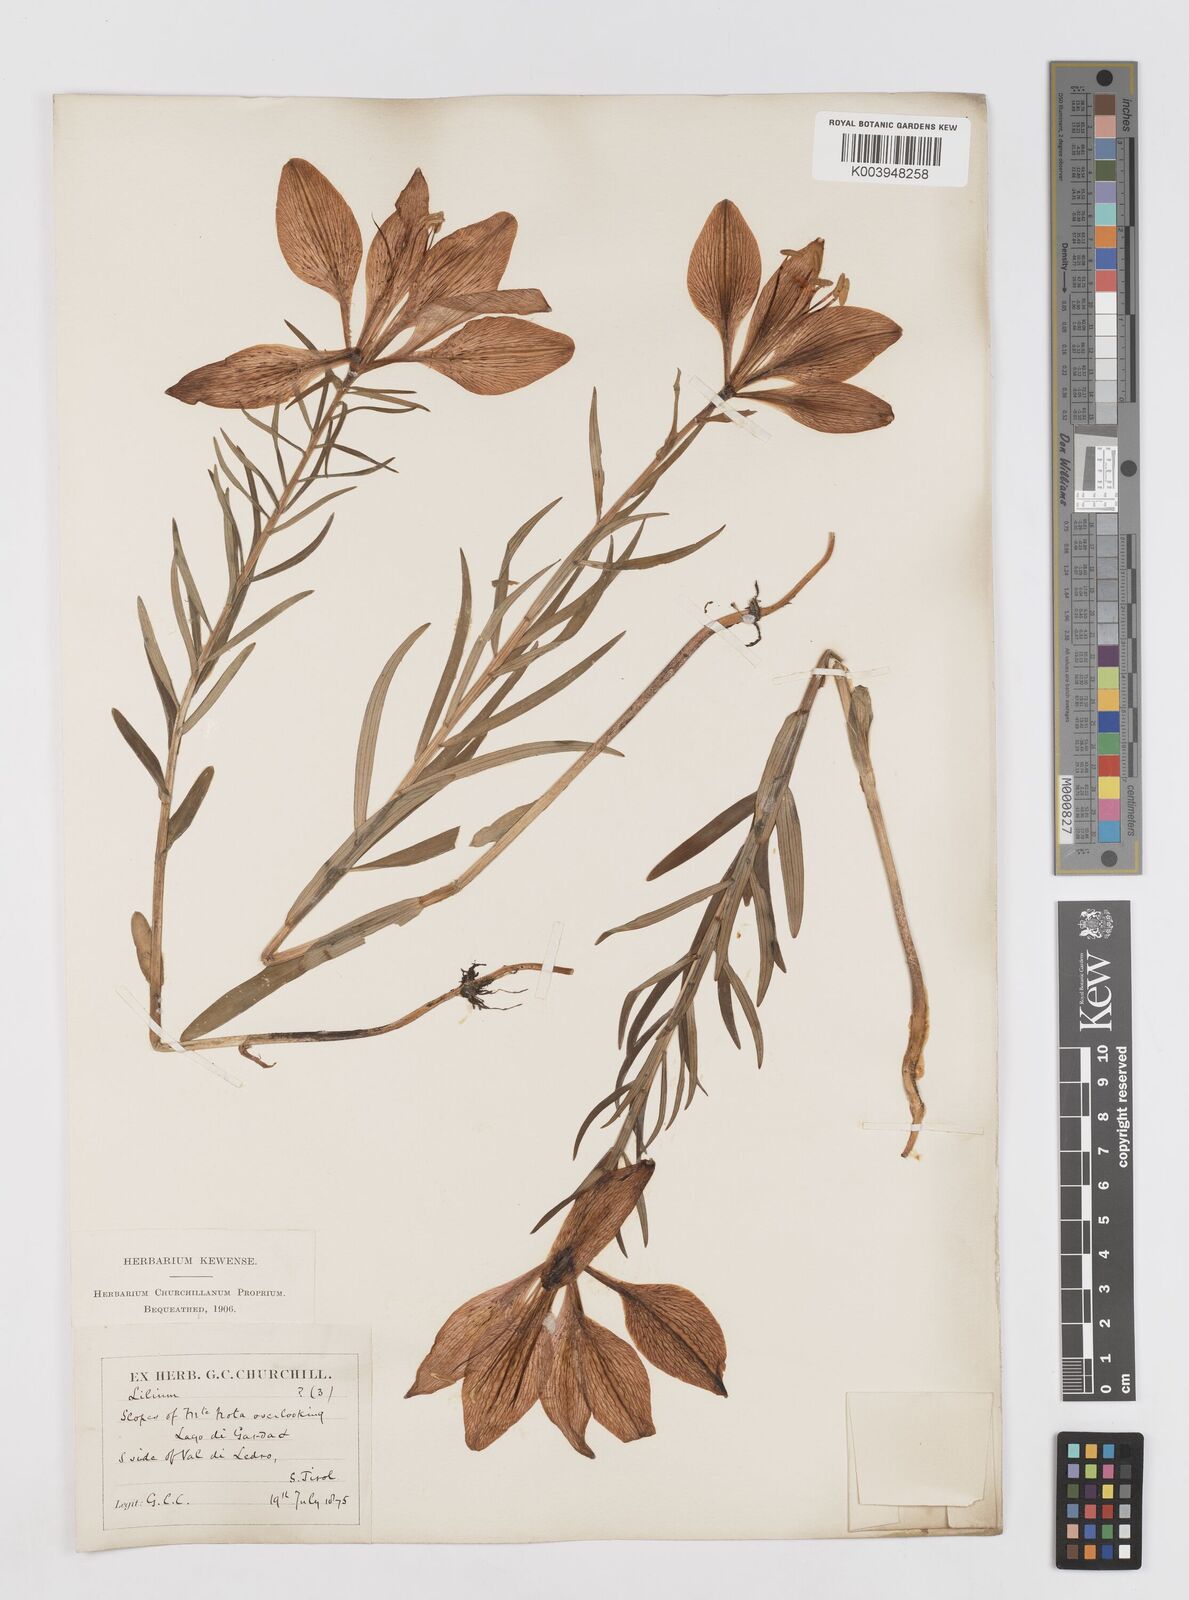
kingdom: Plantae
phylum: Tracheophyta
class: Liliopsida
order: Liliales
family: Liliaceae
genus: Lilium
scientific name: Lilium bulbiferum
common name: Orange lily
